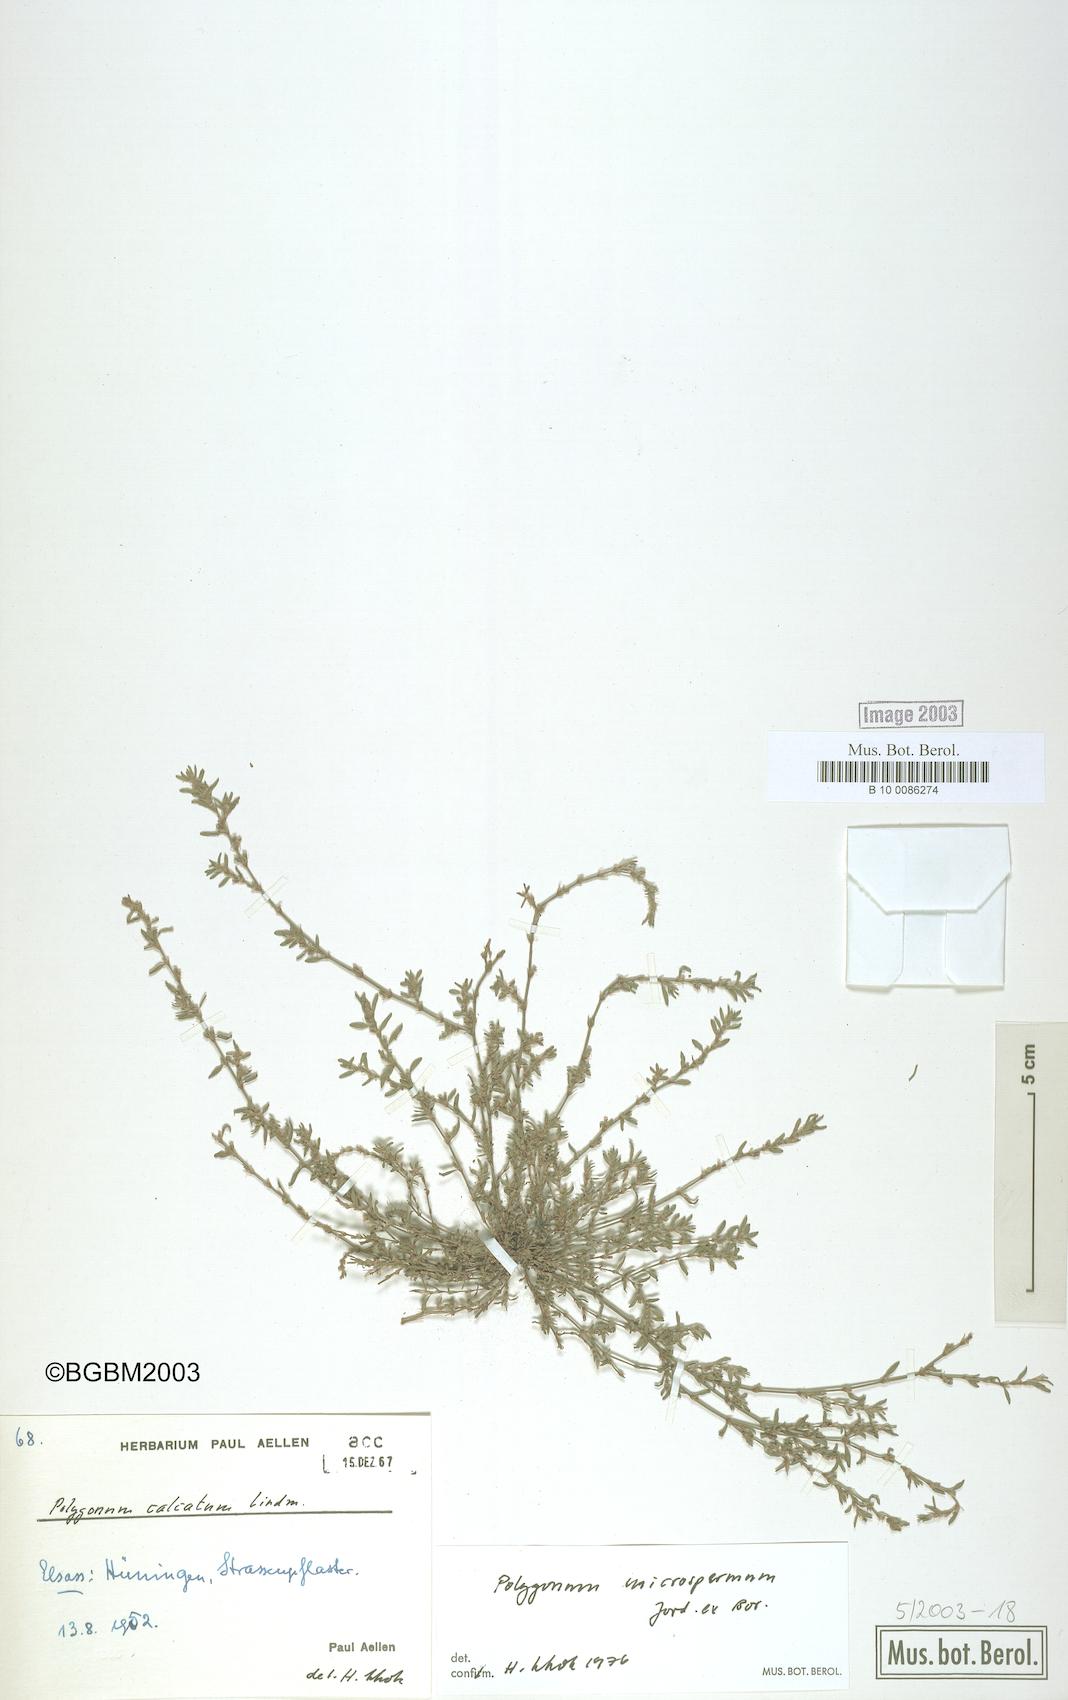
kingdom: Plantae
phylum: Tracheophyta
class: Magnoliopsida
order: Caryophyllales
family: Polygonaceae
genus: Polygonum
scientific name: Polygonum
